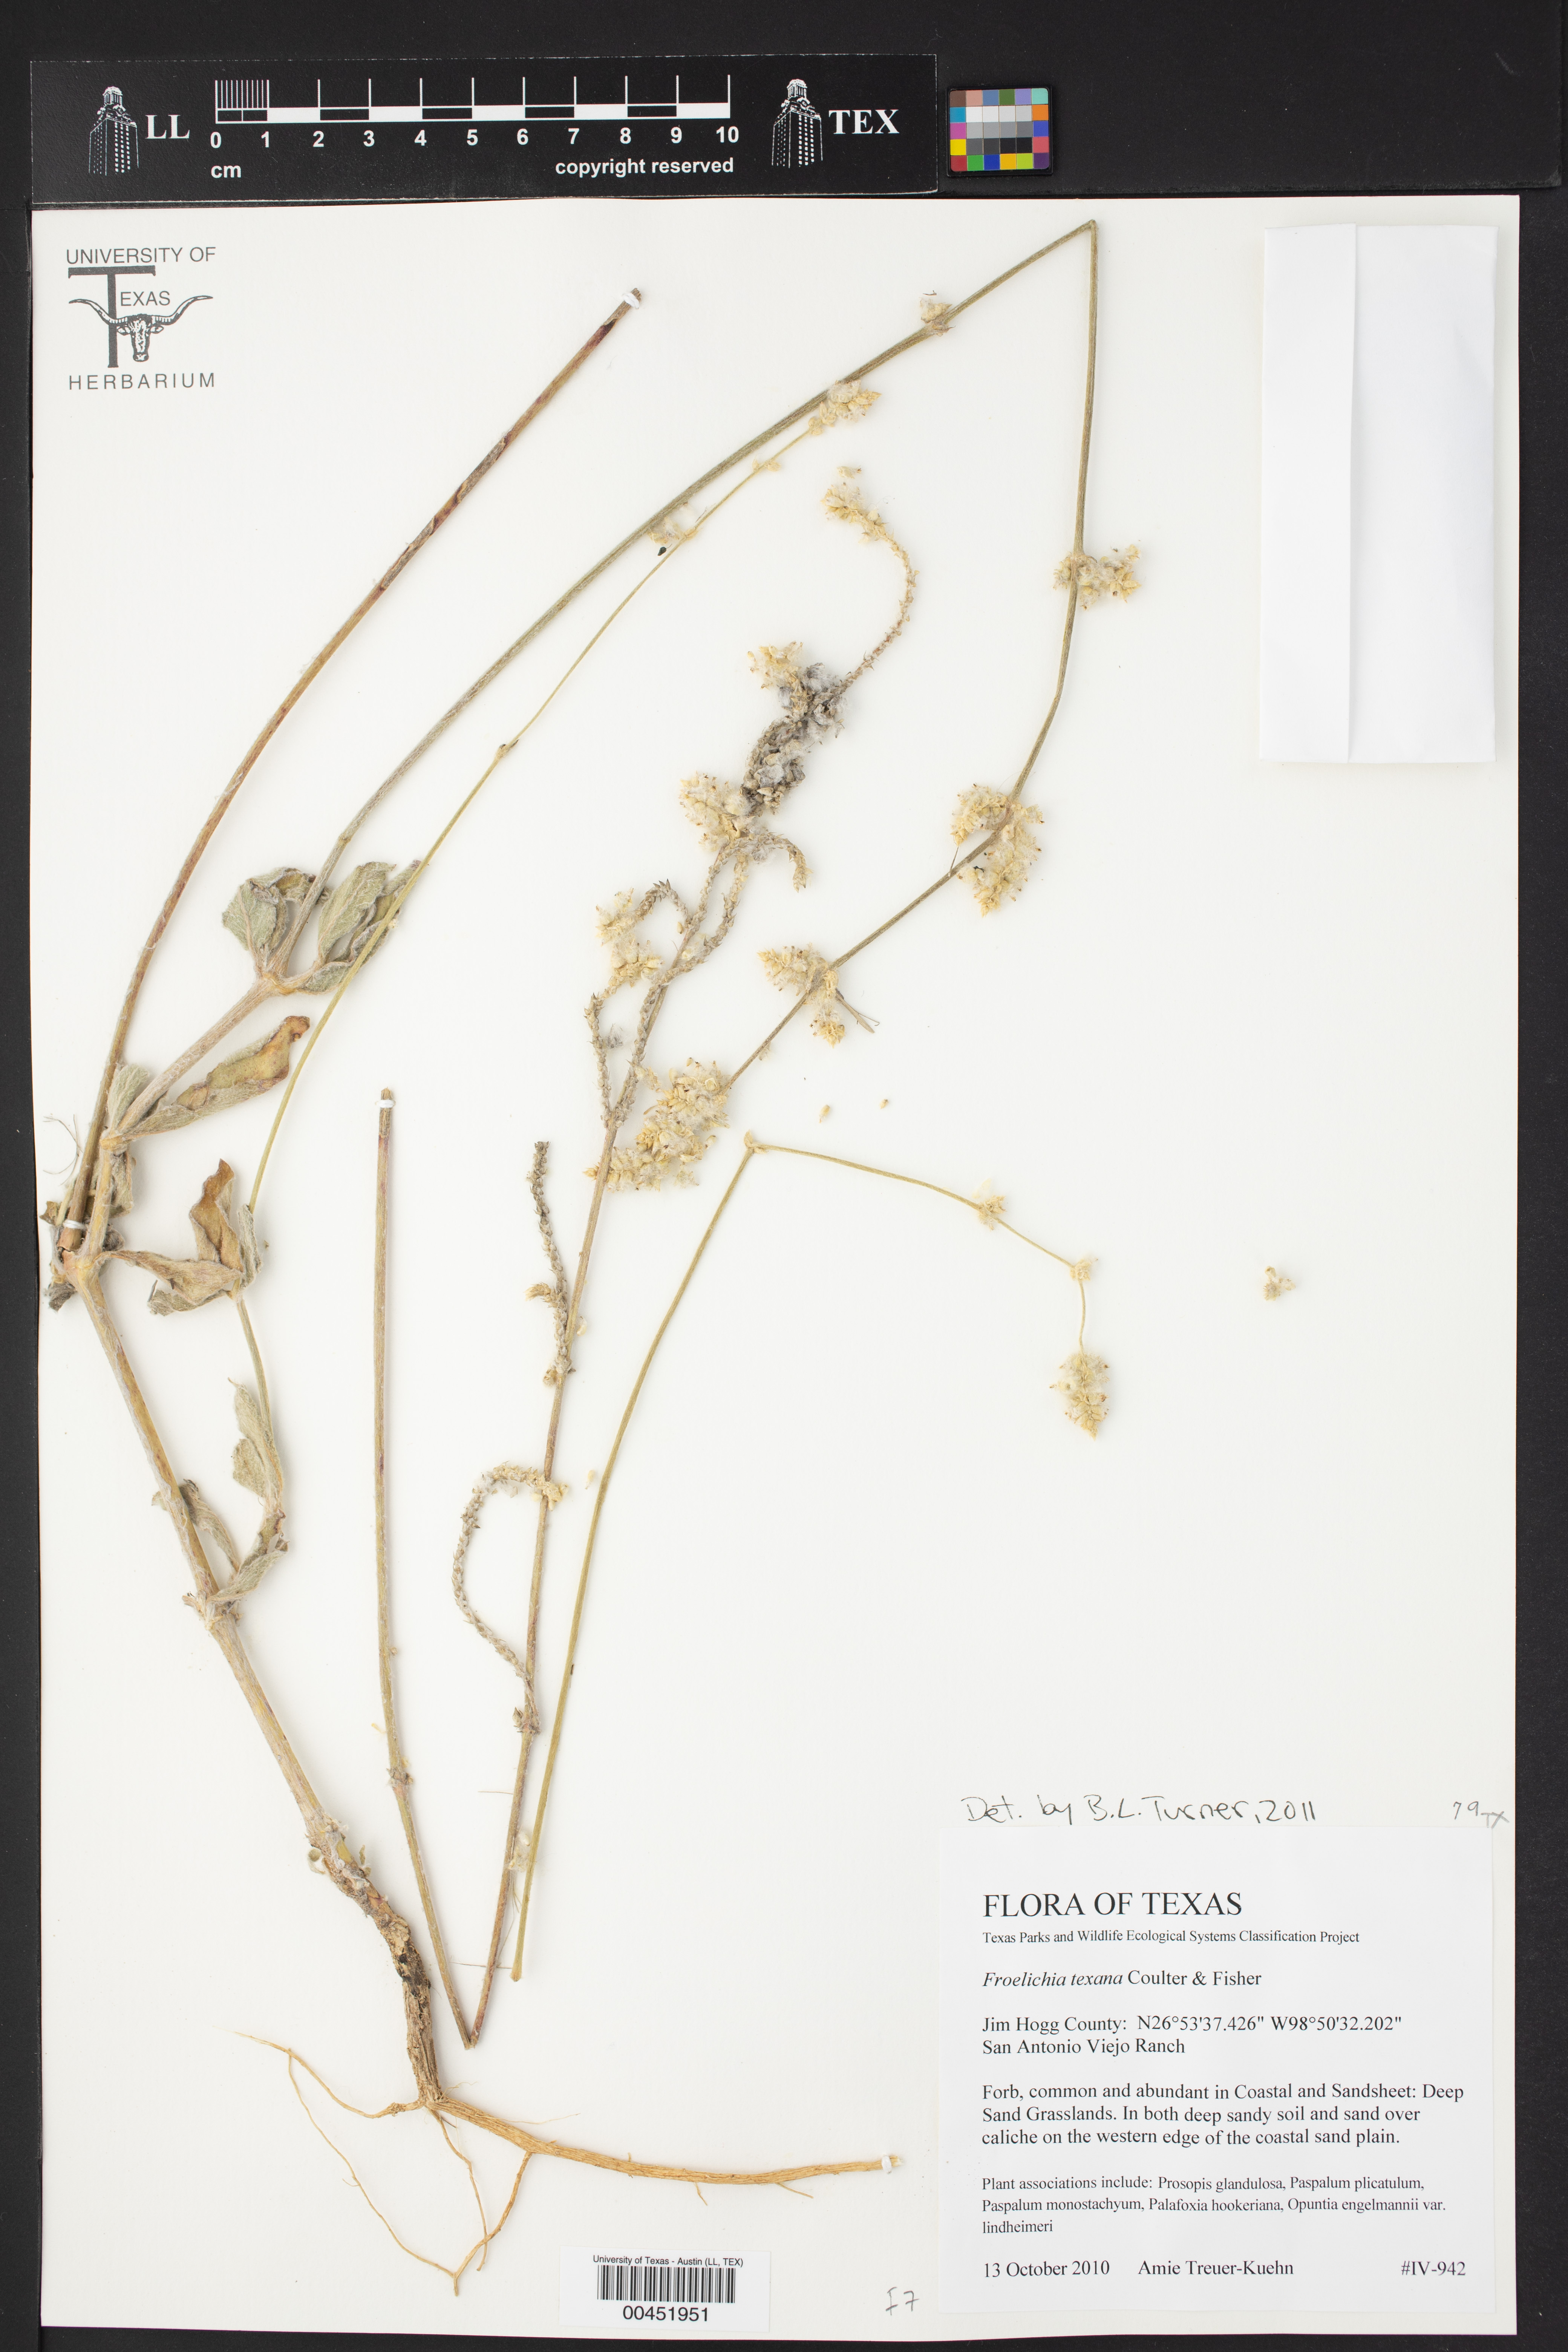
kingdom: Plantae
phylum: Tracheophyta
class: Magnoliopsida
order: Caryophyllales
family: Amaranthaceae
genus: Froelichia
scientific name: Froelichia texana
